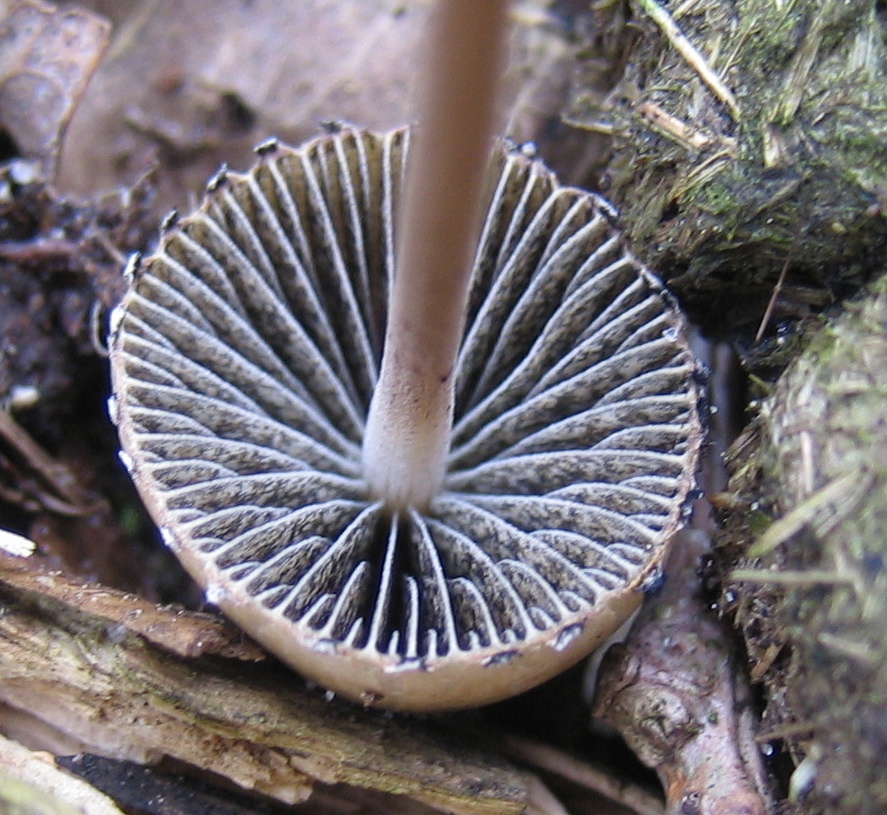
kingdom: Fungi
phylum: Basidiomycota
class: Agaricomycetes
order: Agaricales
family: Bolbitiaceae
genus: Panaeolus
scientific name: Panaeolus papilionaceus
